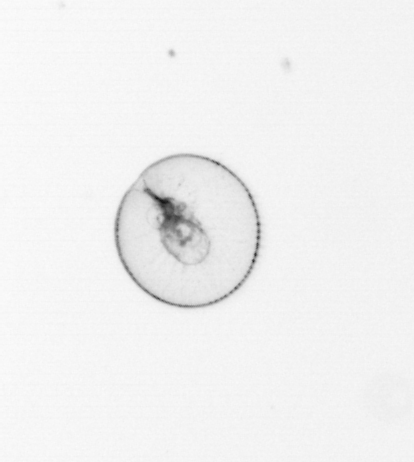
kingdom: Chromista
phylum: Myzozoa
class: Dinophyceae
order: Noctilucales
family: Noctilucaceae
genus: Noctiluca
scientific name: Noctiluca scintillans
